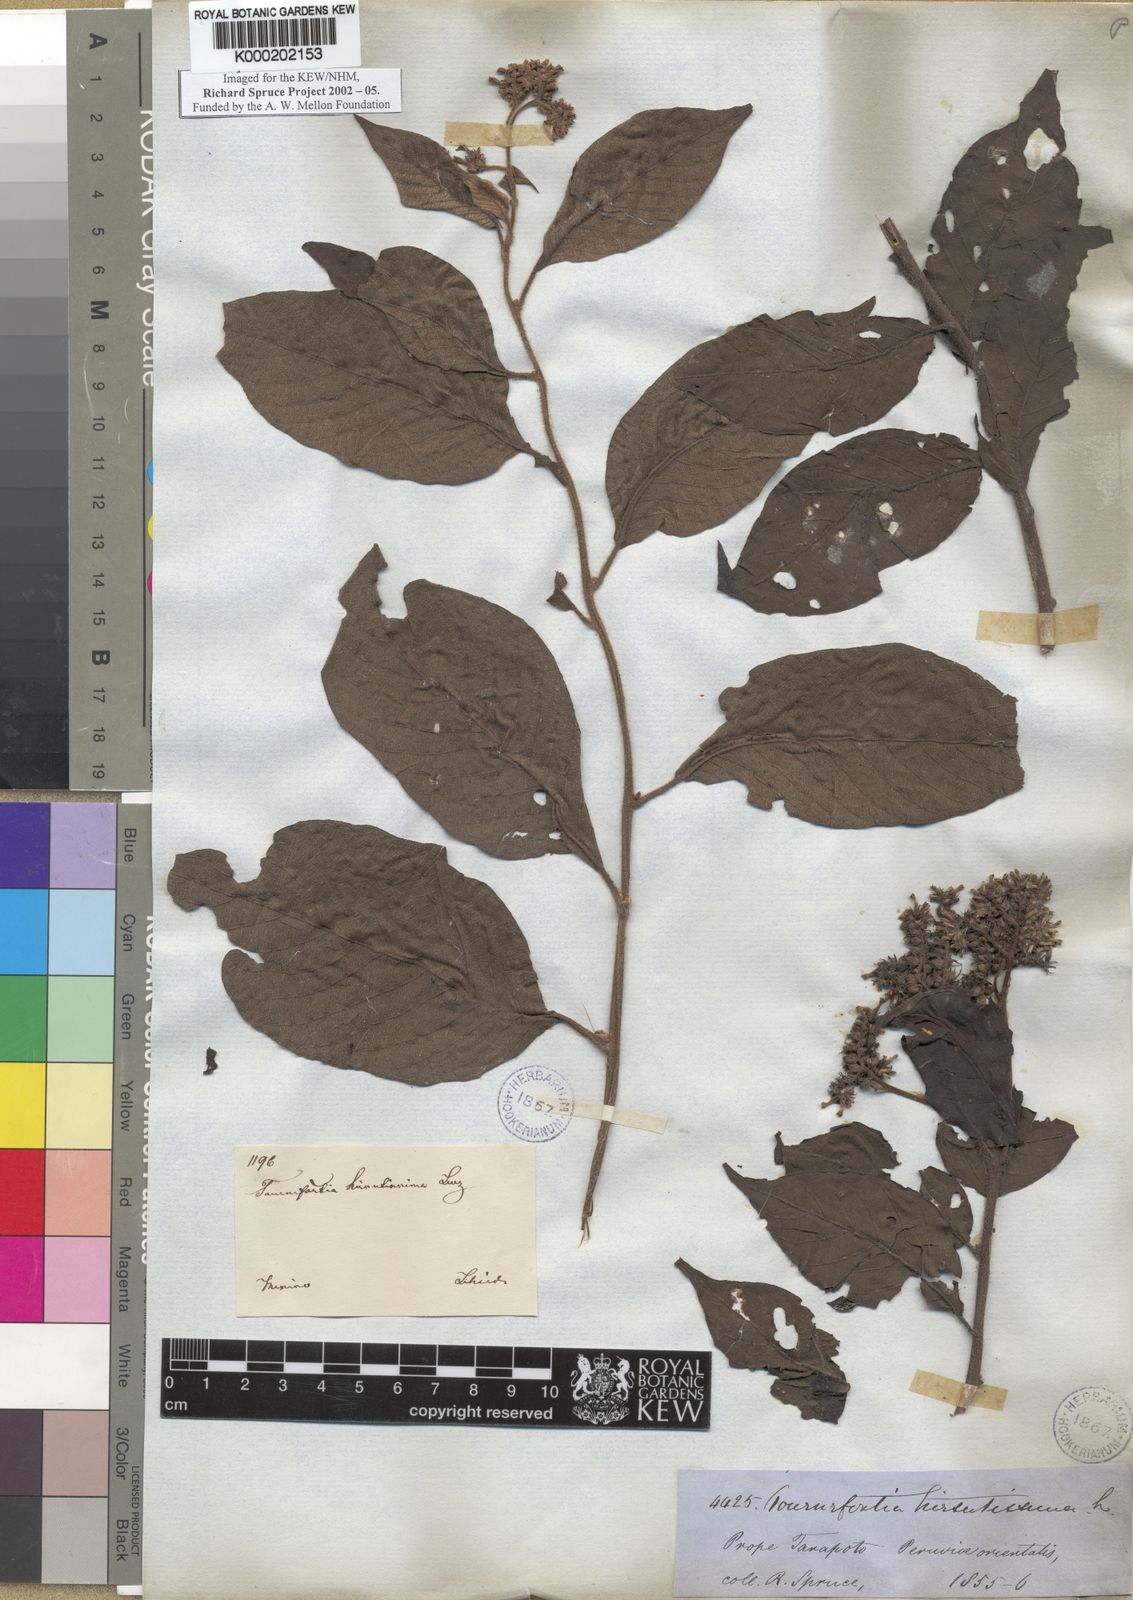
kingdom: Plantae
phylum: Tracheophyta
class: Magnoliopsida
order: Boraginales
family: Heliotropiaceae
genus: Heliotropium
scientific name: Heliotropium verdcourtii
